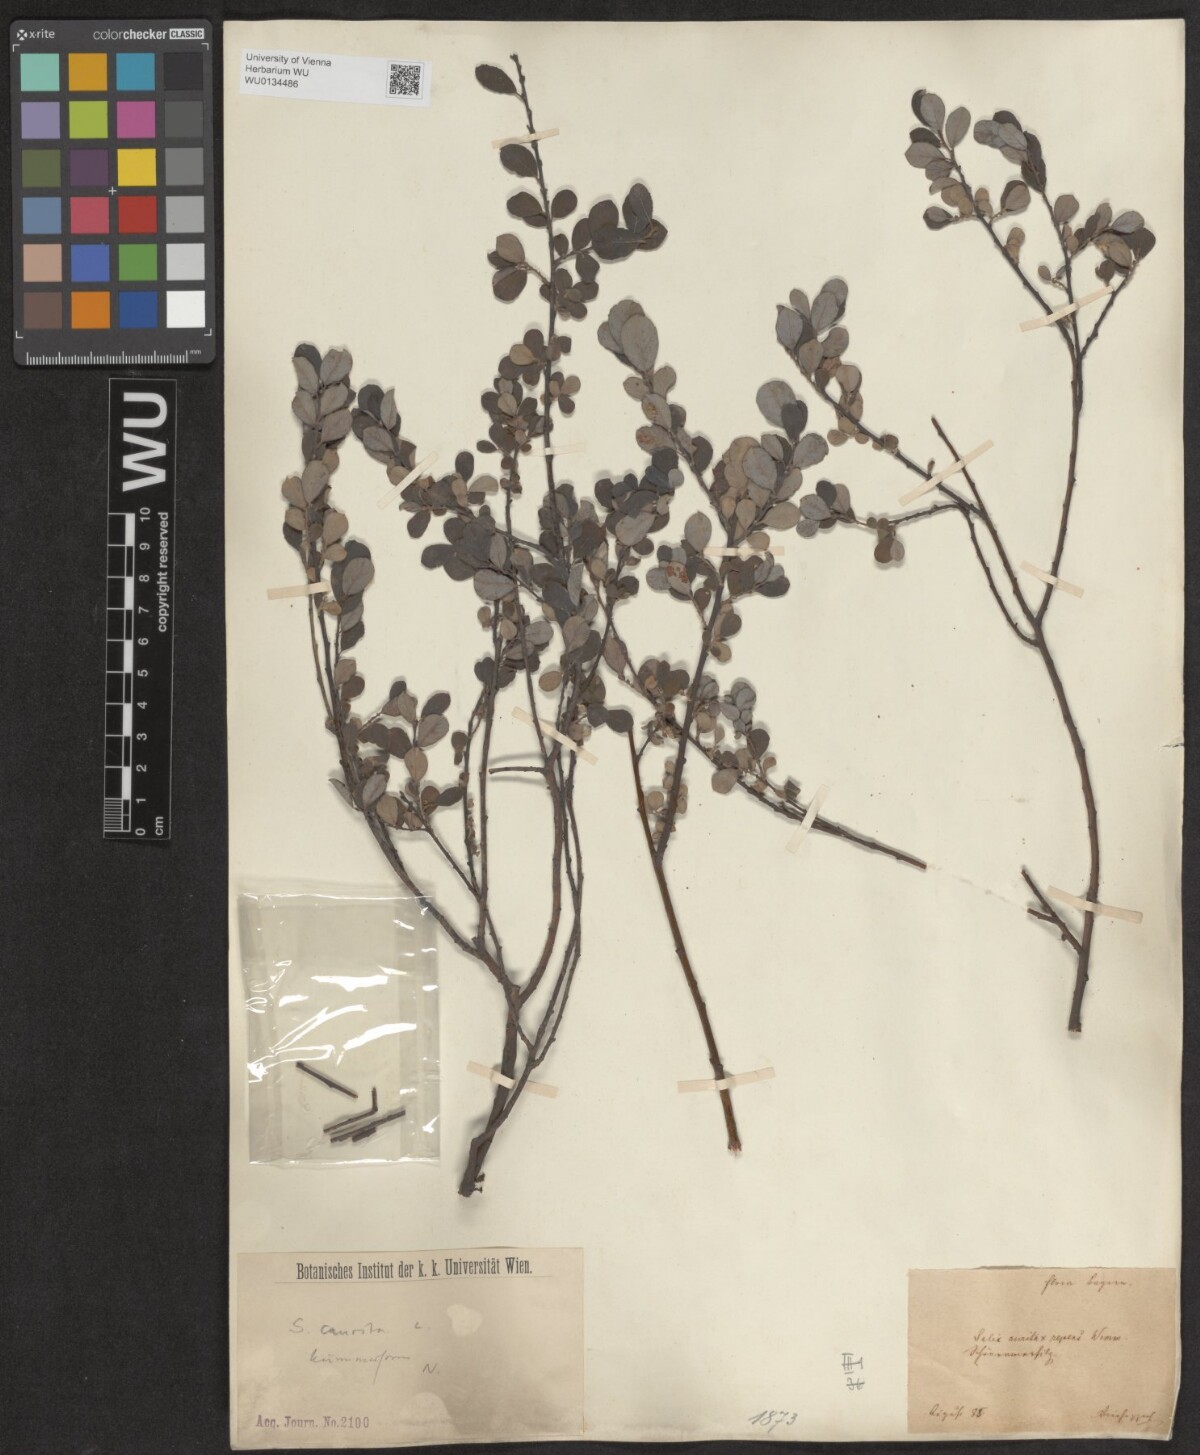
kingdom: Plantae
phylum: Tracheophyta
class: Magnoliopsida
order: Malpighiales
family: Salicaceae
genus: Salix
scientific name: Salix aurita
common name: Eared willow
